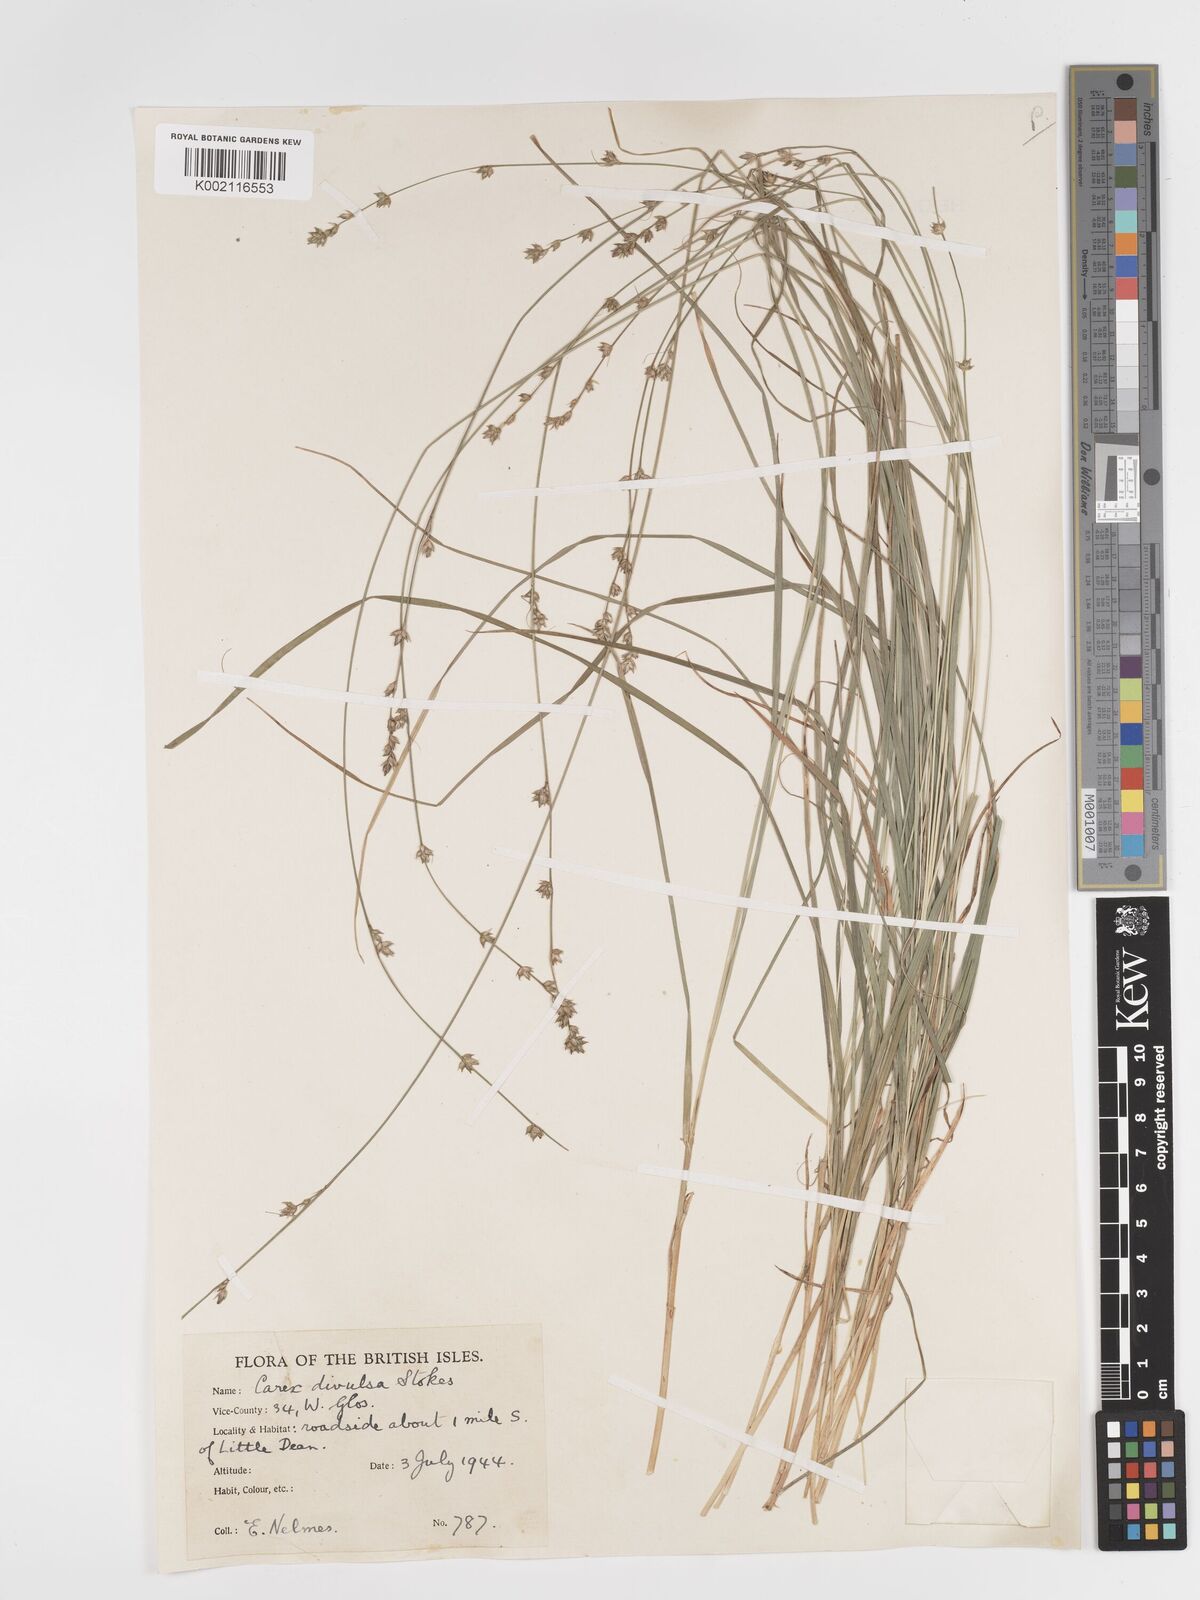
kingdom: Plantae
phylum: Tracheophyta
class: Liliopsida
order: Poales
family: Cyperaceae
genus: Carex
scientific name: Carex divulsa
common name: Grassland sedge
